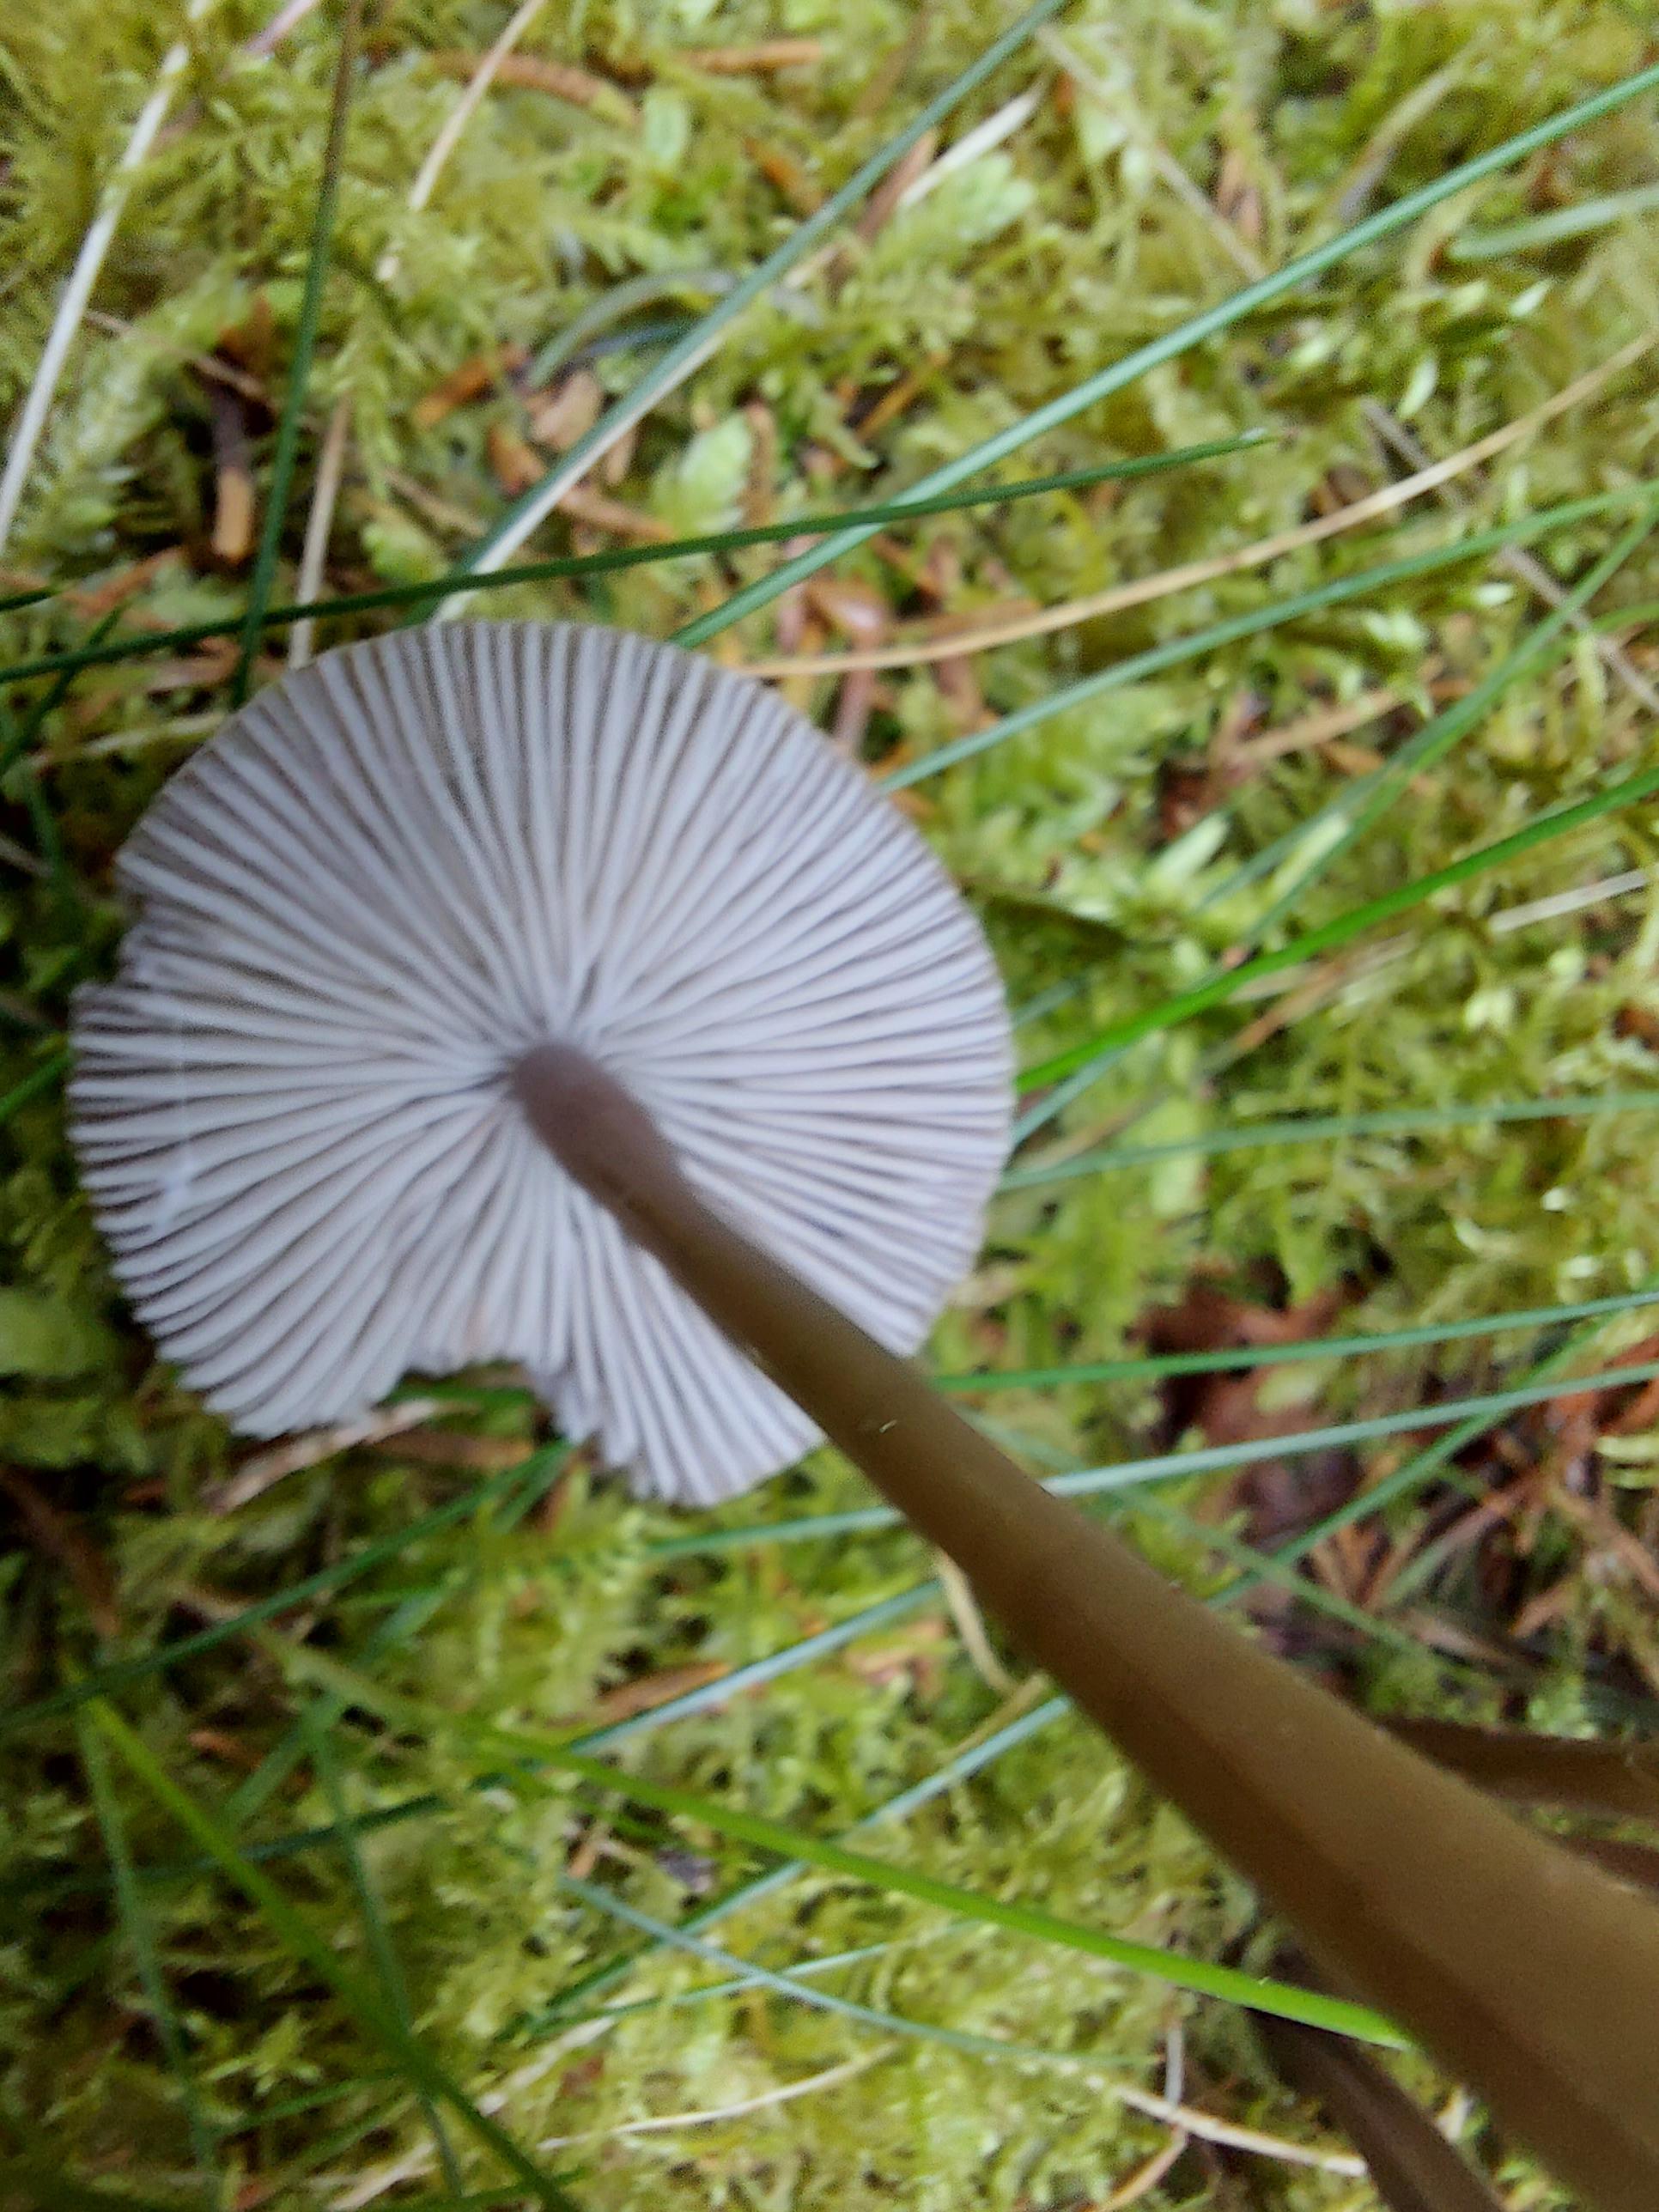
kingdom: Fungi
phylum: Basidiomycota
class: Agaricomycetes
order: Agaricales
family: Mycenaceae
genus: Mycena
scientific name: Mycena
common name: huesvamp
